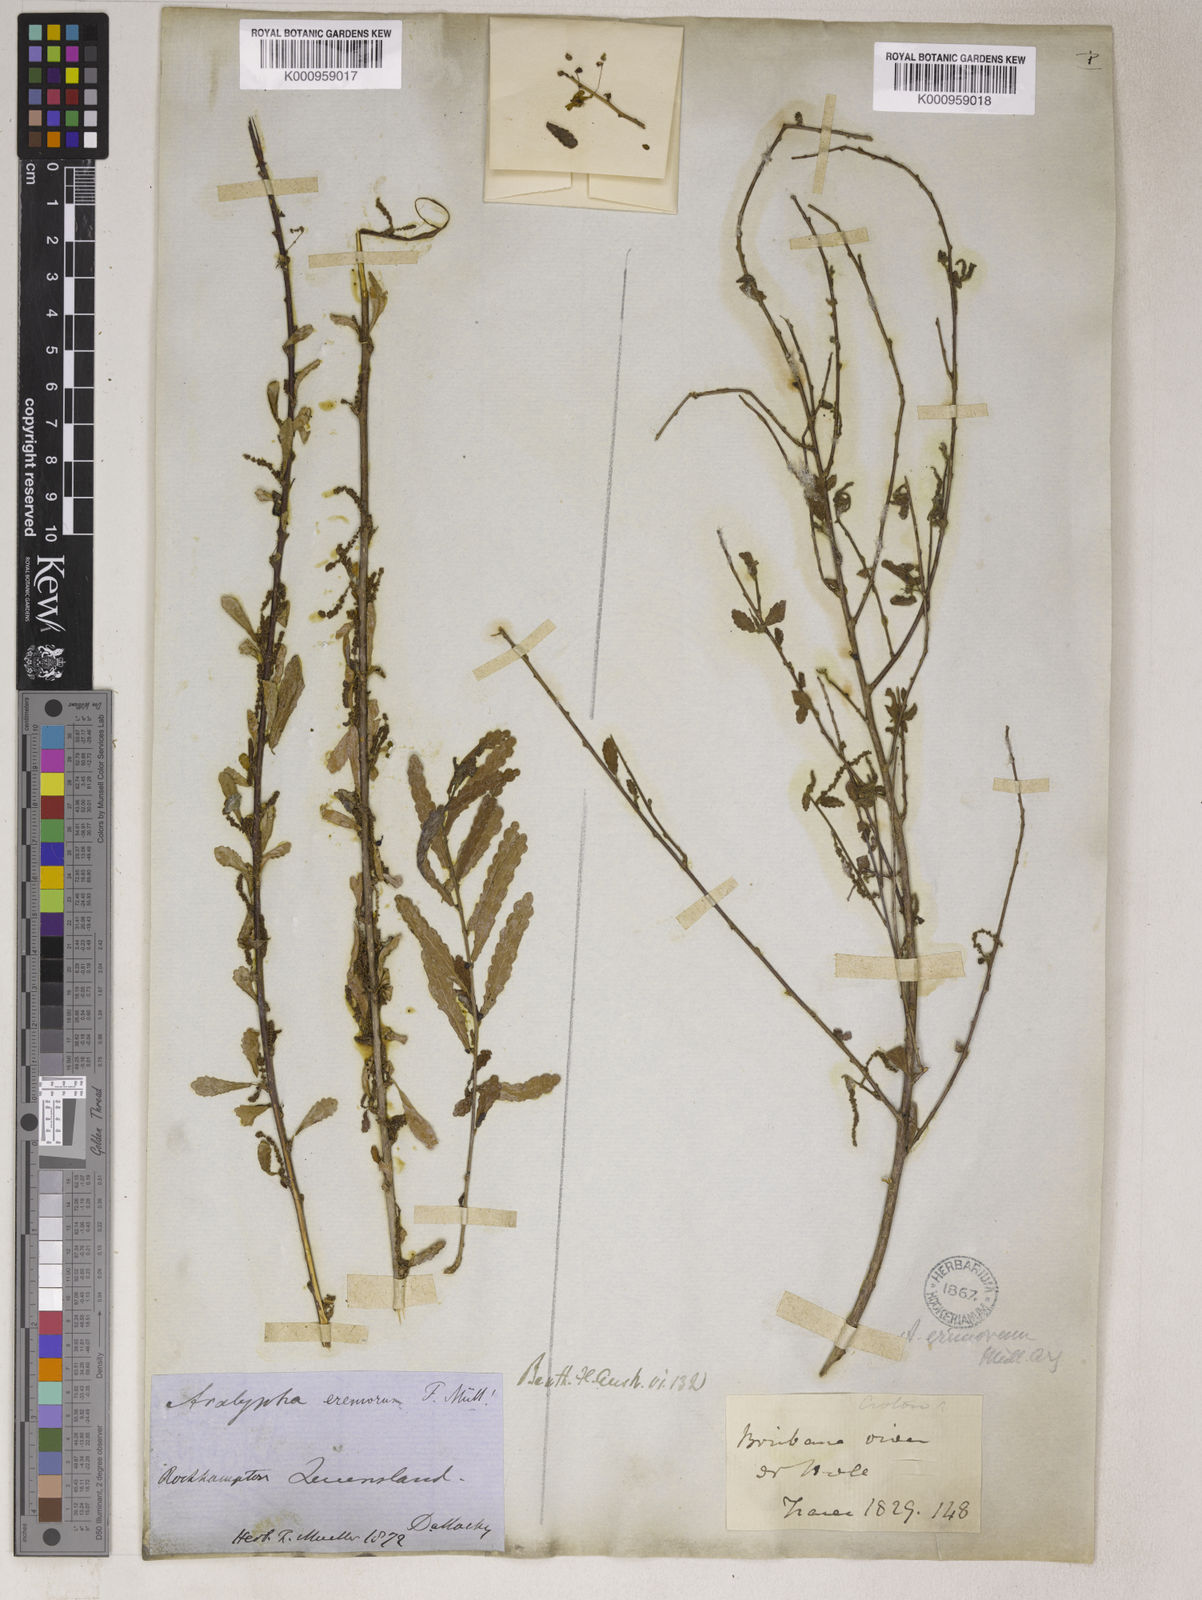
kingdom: Plantae
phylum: Tracheophyta
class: Magnoliopsida
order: Malpighiales
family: Euphorbiaceae
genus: Acalypha
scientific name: Acalypha
